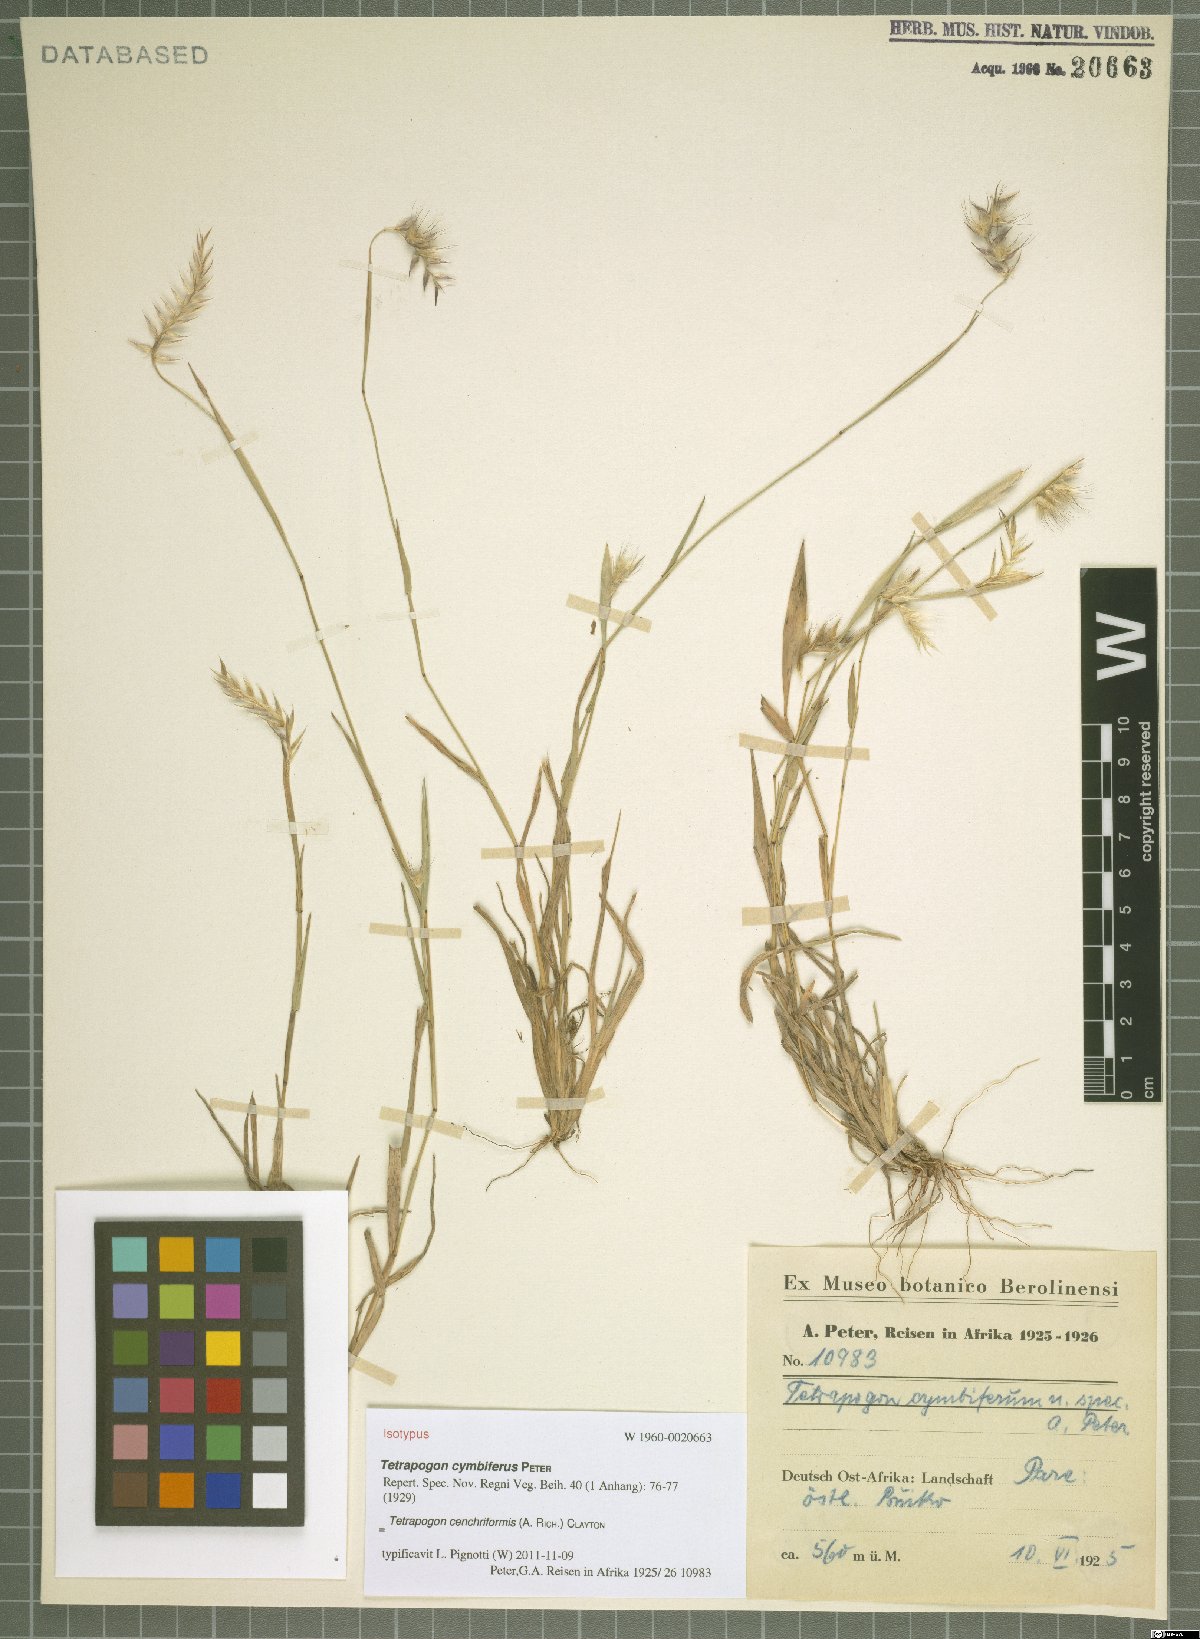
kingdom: Plantae
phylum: Tracheophyta
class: Liliopsida
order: Poales
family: Poaceae
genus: Tetrapogon
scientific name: Tetrapogon cenchriformis
